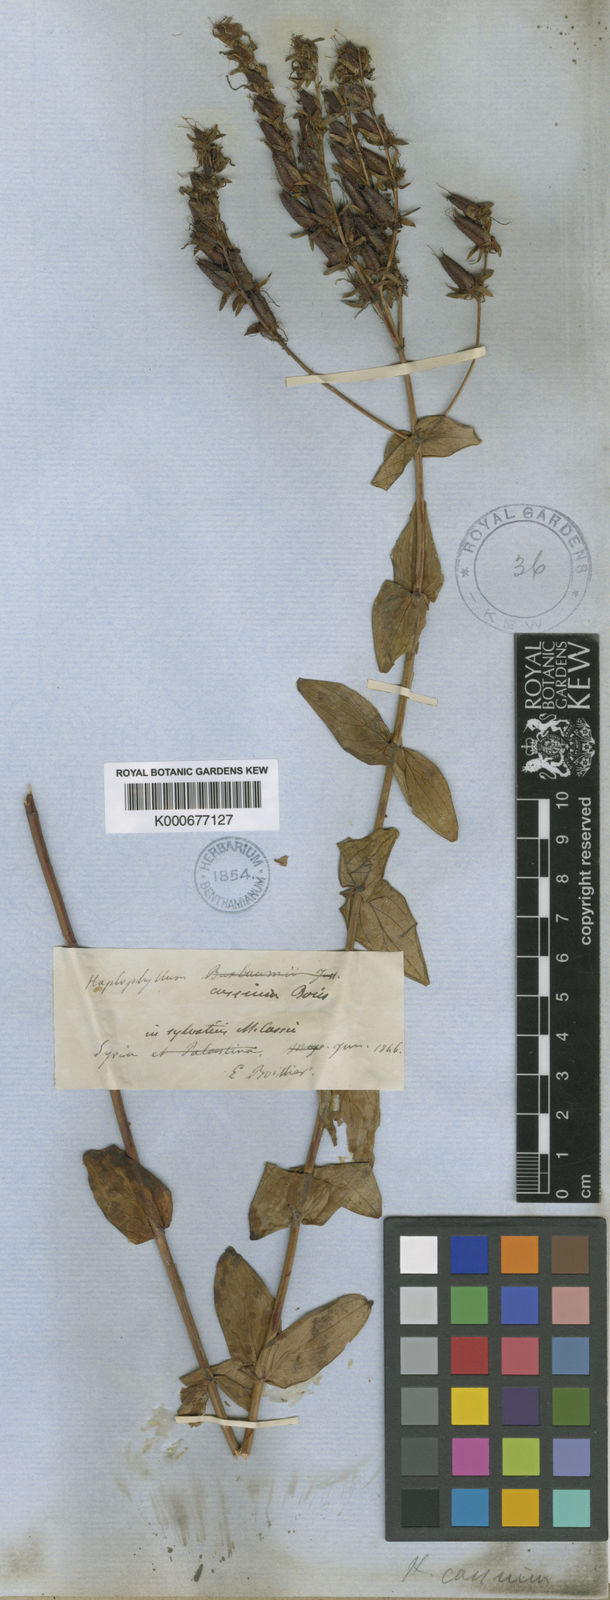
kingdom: Plantae
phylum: Tracheophyta
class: Magnoliopsida
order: Malpighiales
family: Hypericaceae
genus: Hypericum
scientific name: Hypericum montbretii
